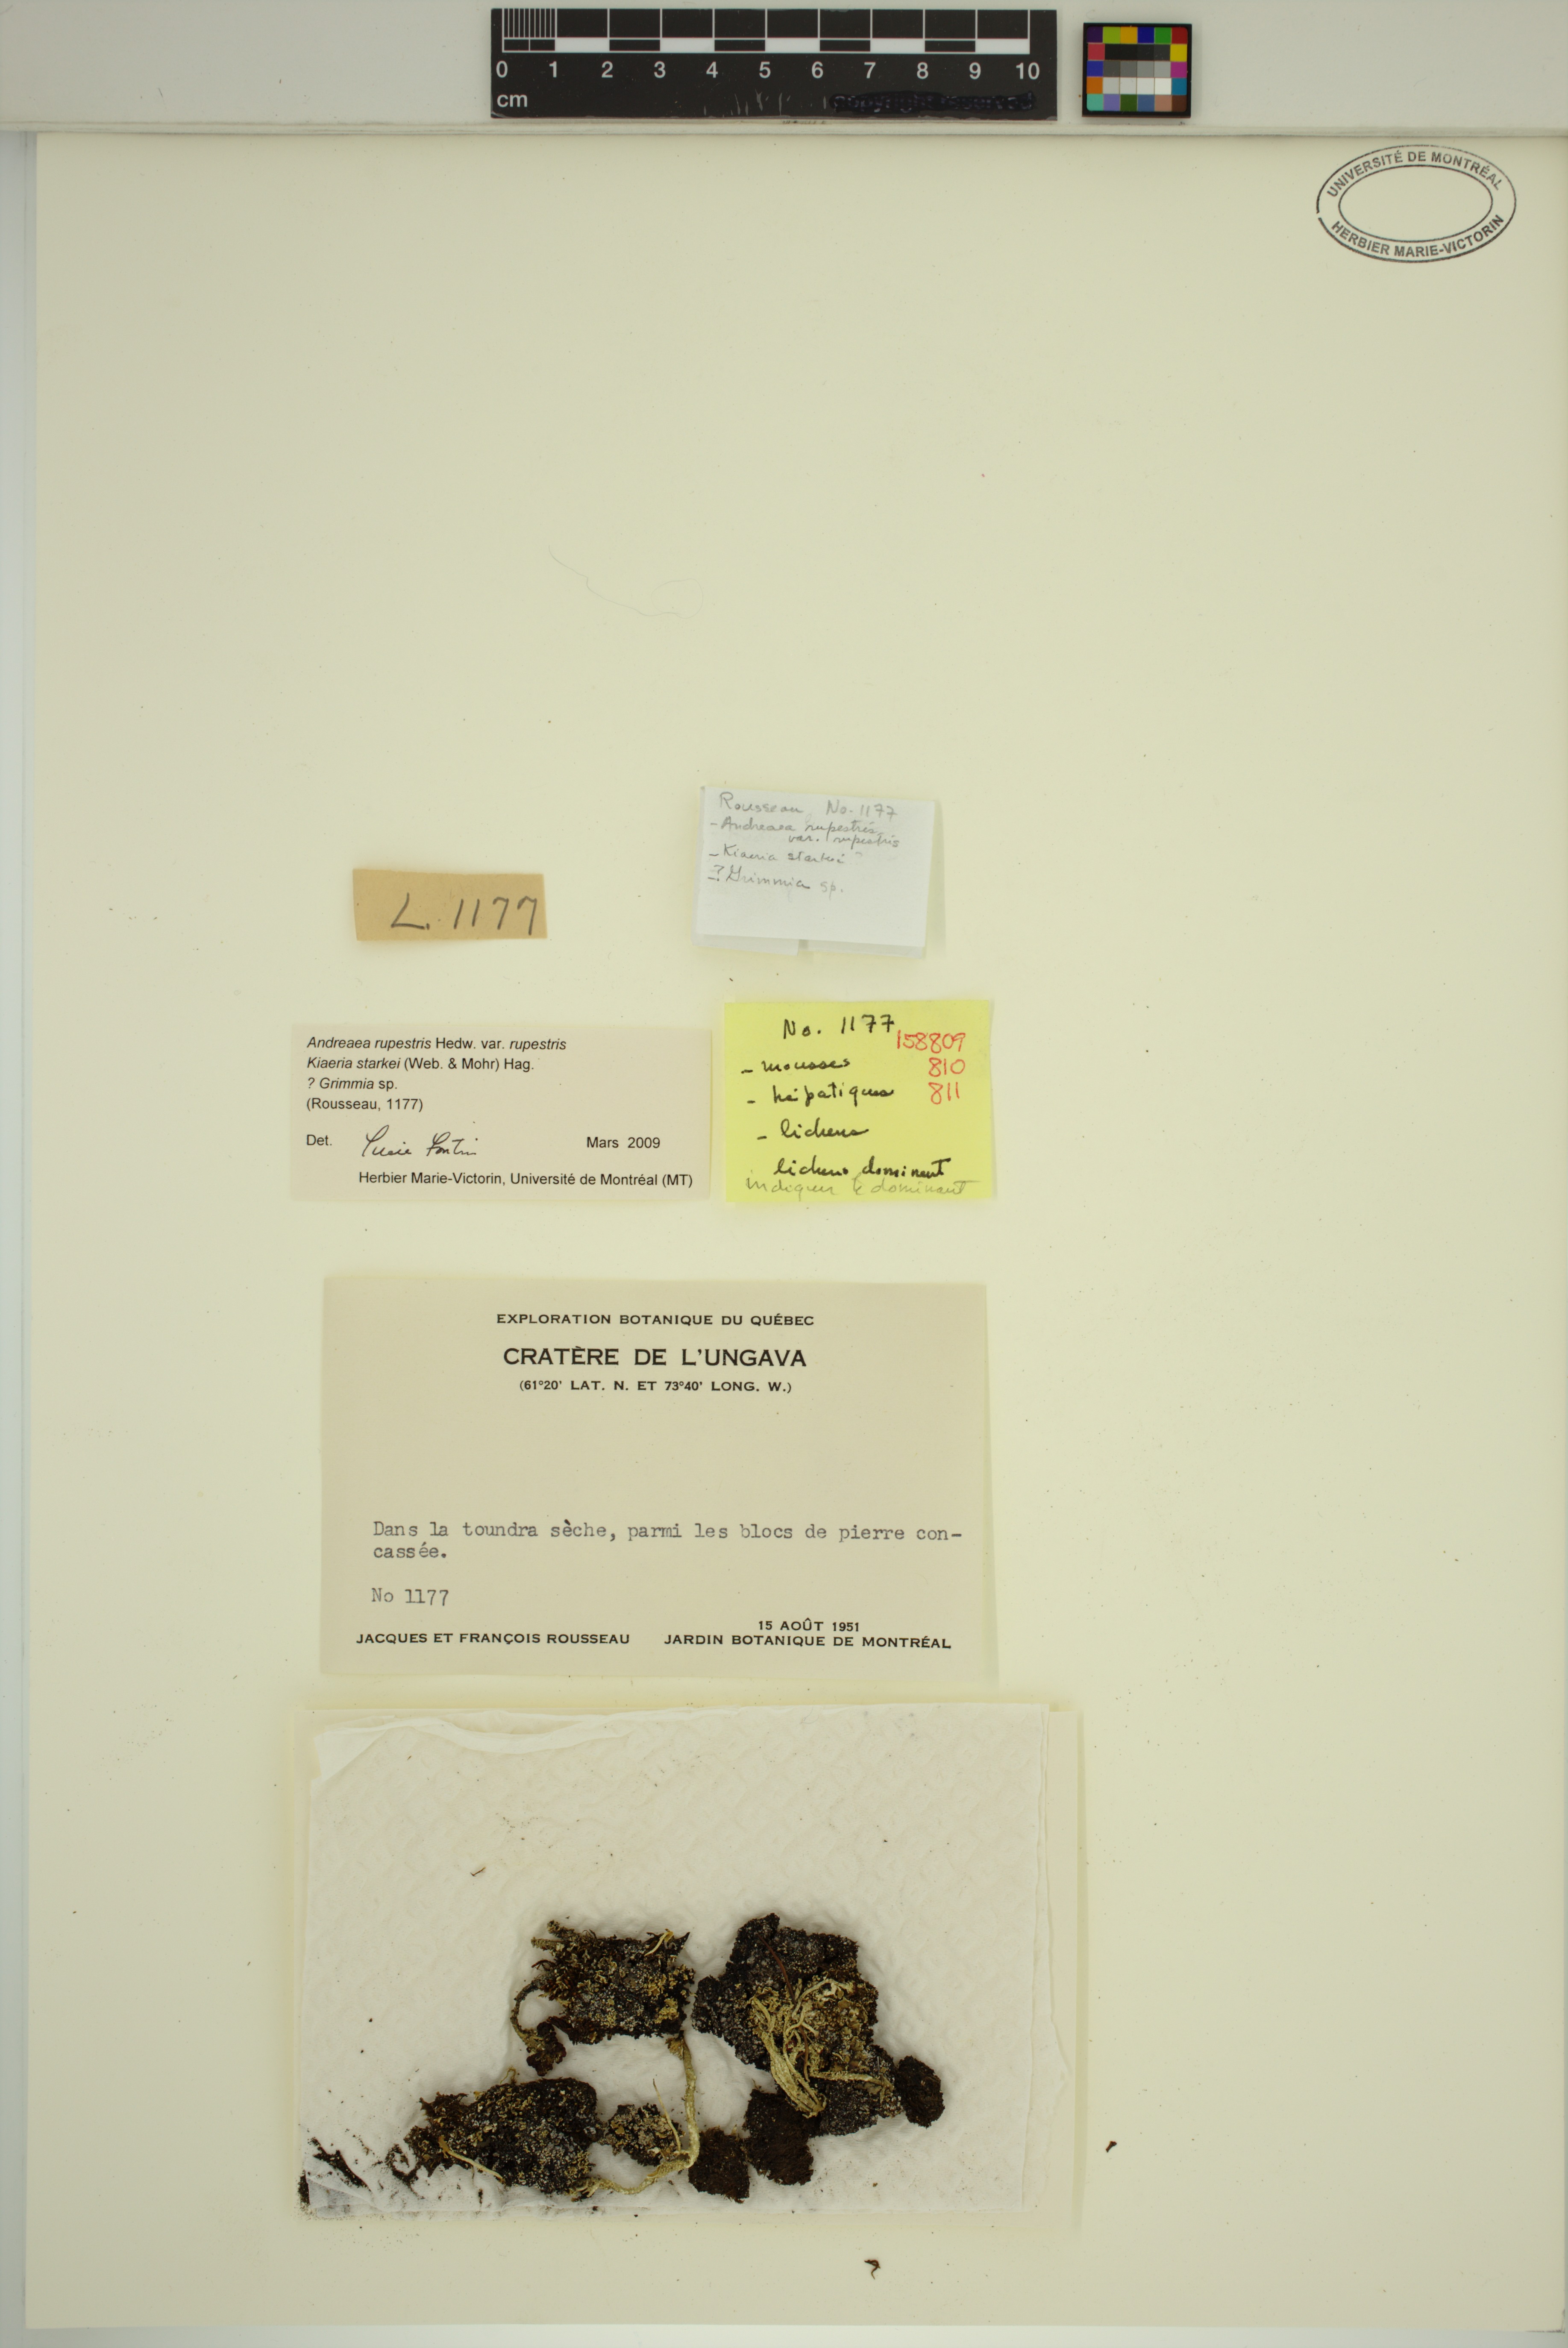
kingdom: Plantae
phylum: Bryophyta
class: Andreaeopsida
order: Andreaeales
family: Andreaeaceae
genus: Andreaea
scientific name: Andreaea rupestris
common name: Black rock moss
